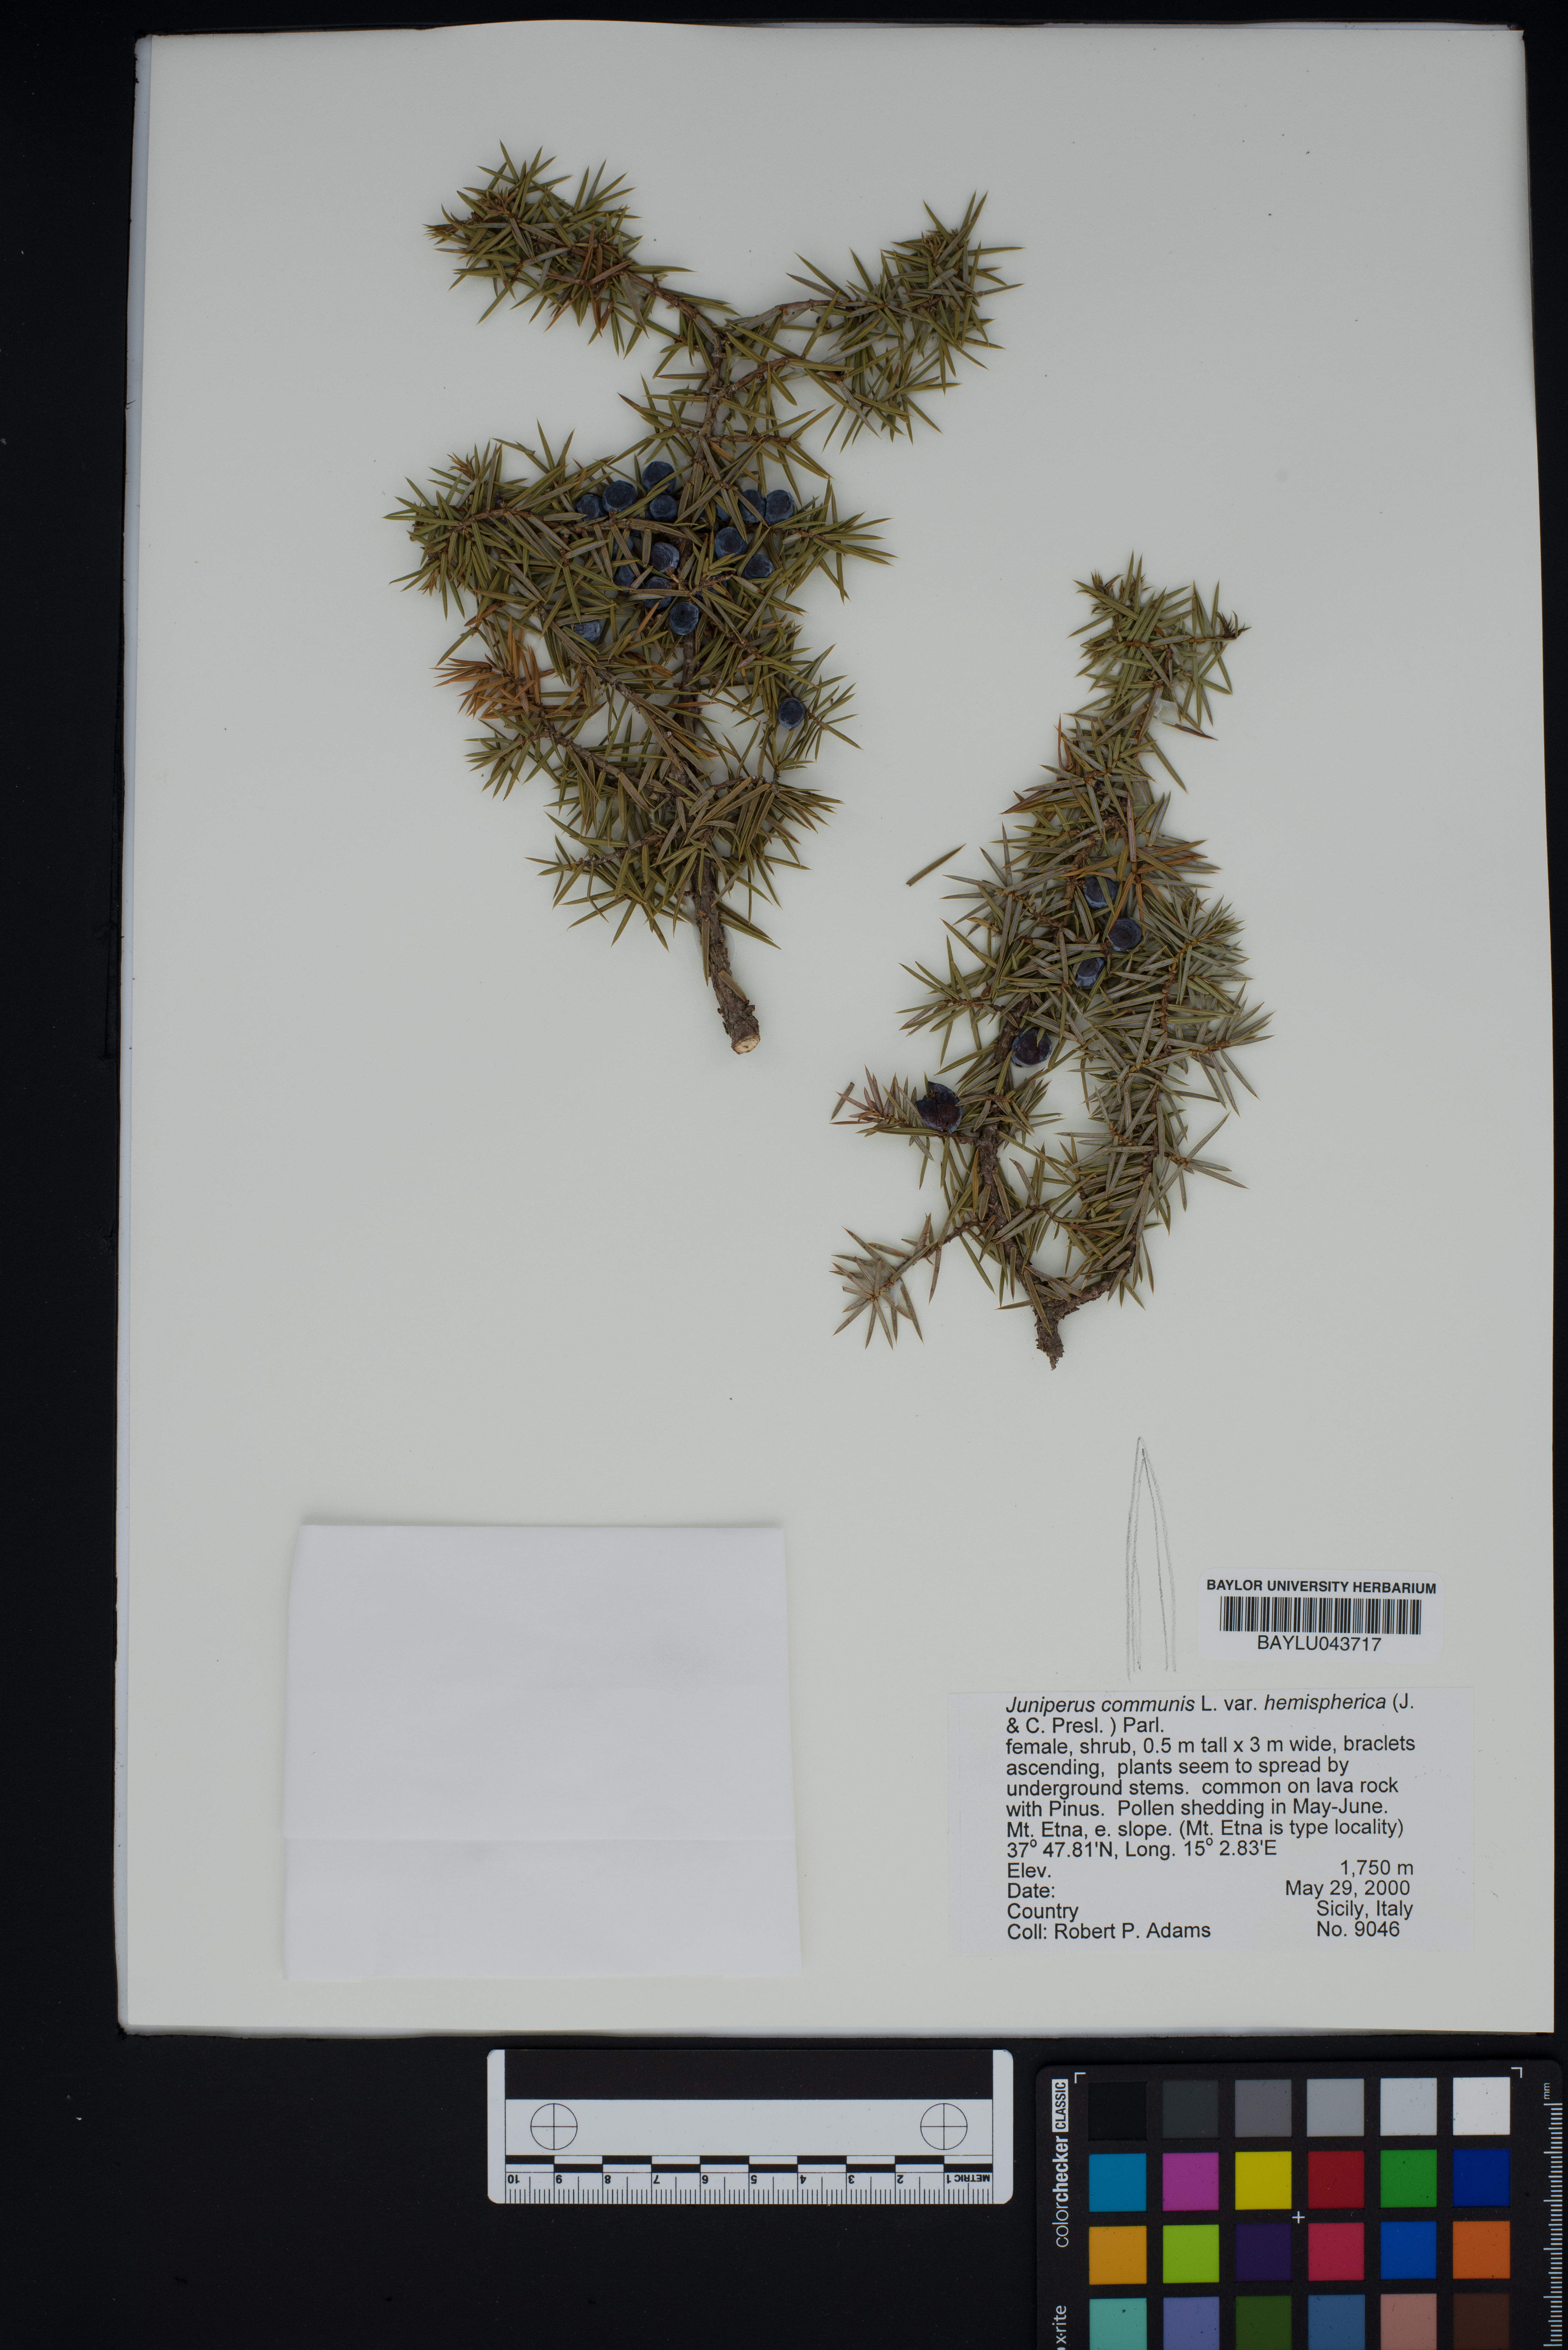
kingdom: Plantae
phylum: Tracheophyta
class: Pinopsida
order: Pinales
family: Cupressaceae
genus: Juniperus
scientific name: Juniperus communis
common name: Common juniper
